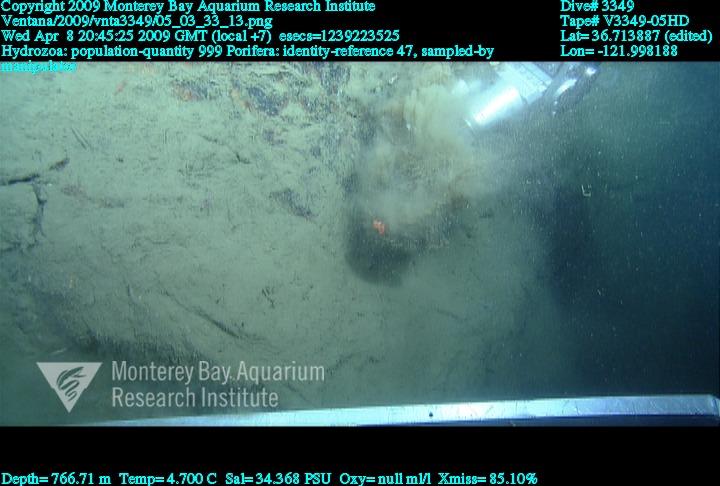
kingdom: Animalia
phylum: Porifera
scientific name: Porifera
